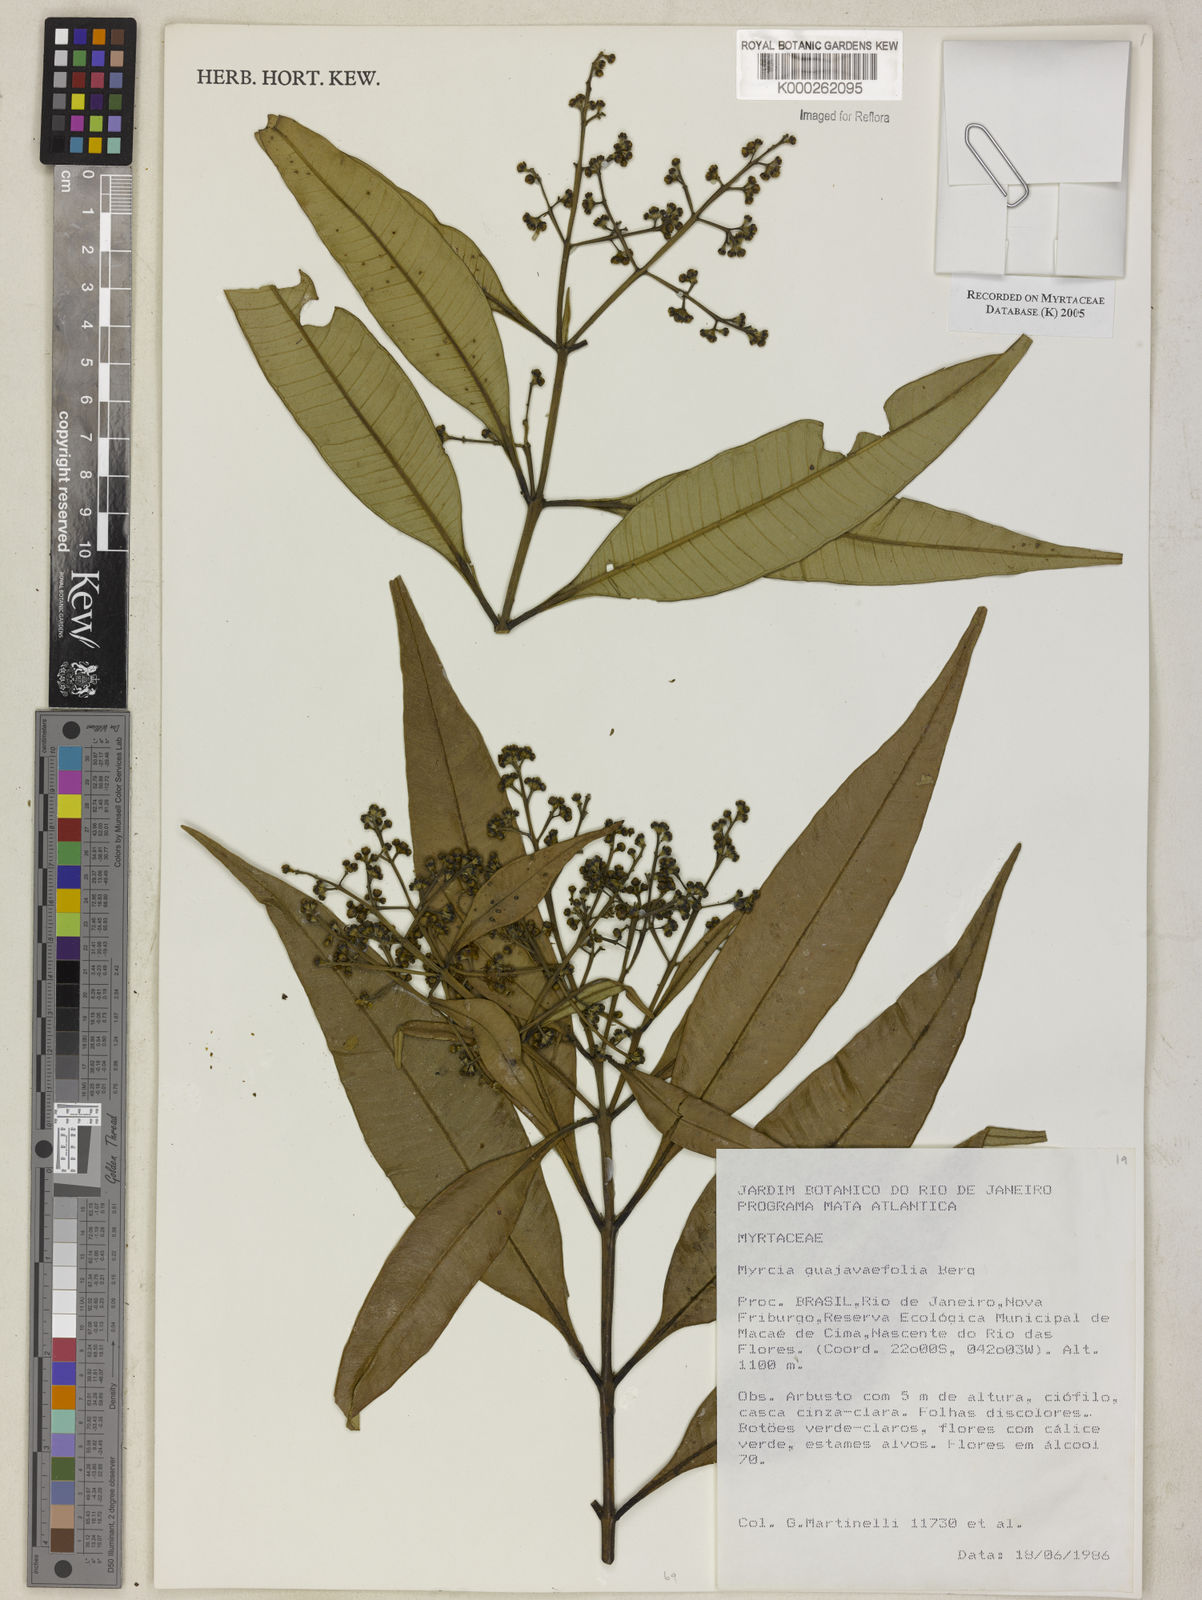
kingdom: Plantae
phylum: Tracheophyta
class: Magnoliopsida
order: Myrtales
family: Myrtaceae
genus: Myrcia
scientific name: Myrcia splendens
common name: Surinam cherry
